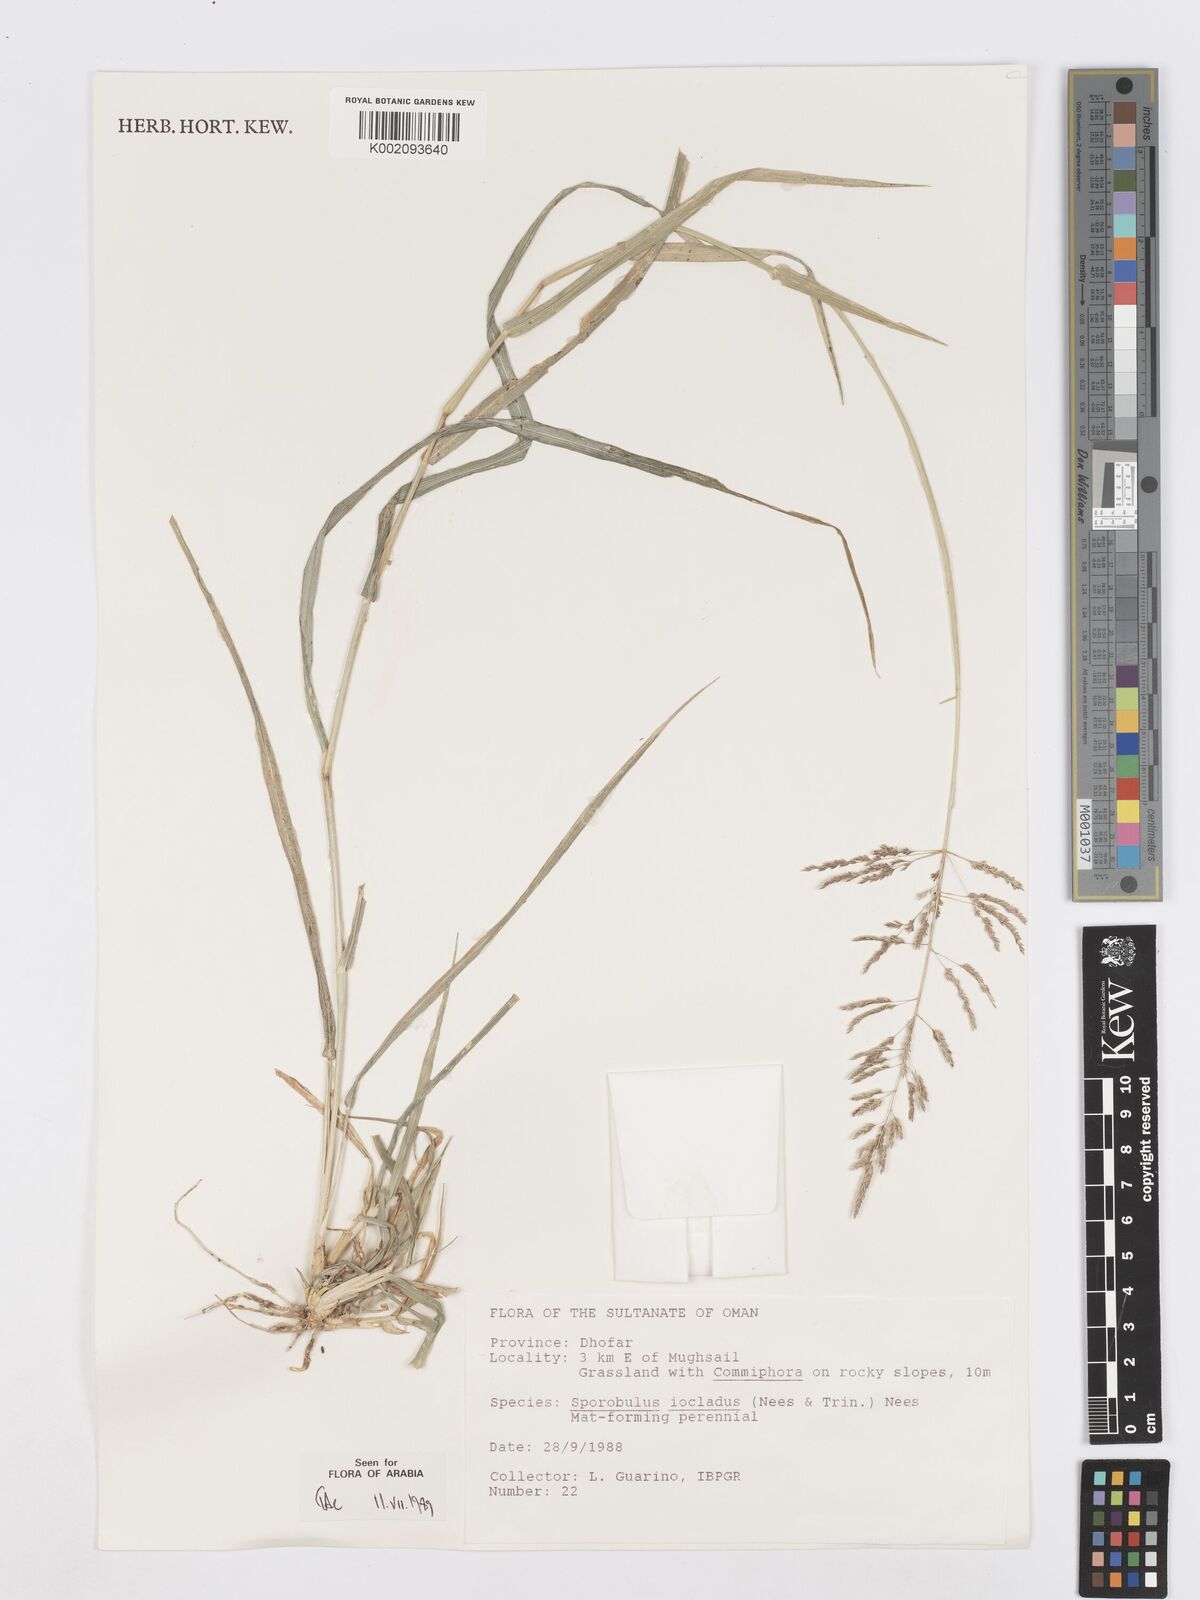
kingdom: Plantae
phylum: Tracheophyta
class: Liliopsida
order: Poales
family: Poaceae
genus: Sporobolus
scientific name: Sporobolus ioclados
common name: Pan dropseed
